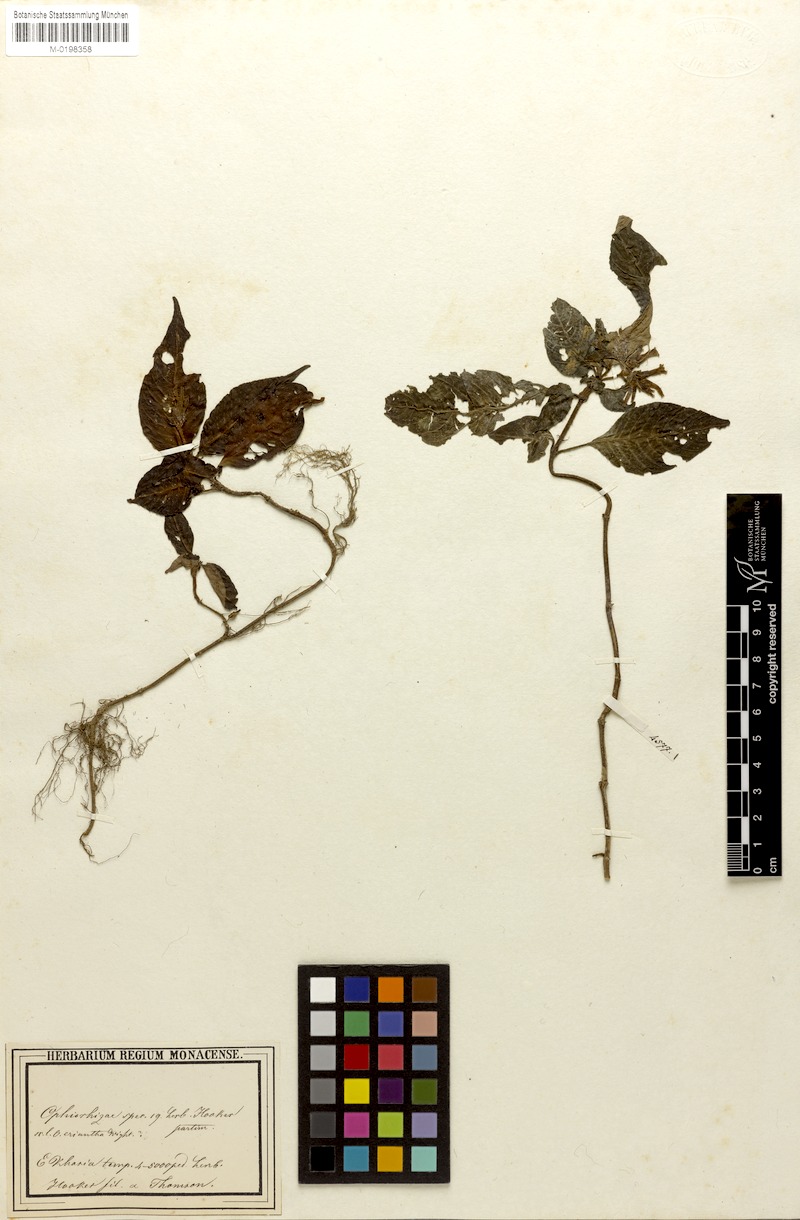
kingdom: Plantae
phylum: Tracheophyta
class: Magnoliopsida
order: Gentianales
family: Rubiaceae
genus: Ophiorrhiza
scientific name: Ophiorrhiza repens
